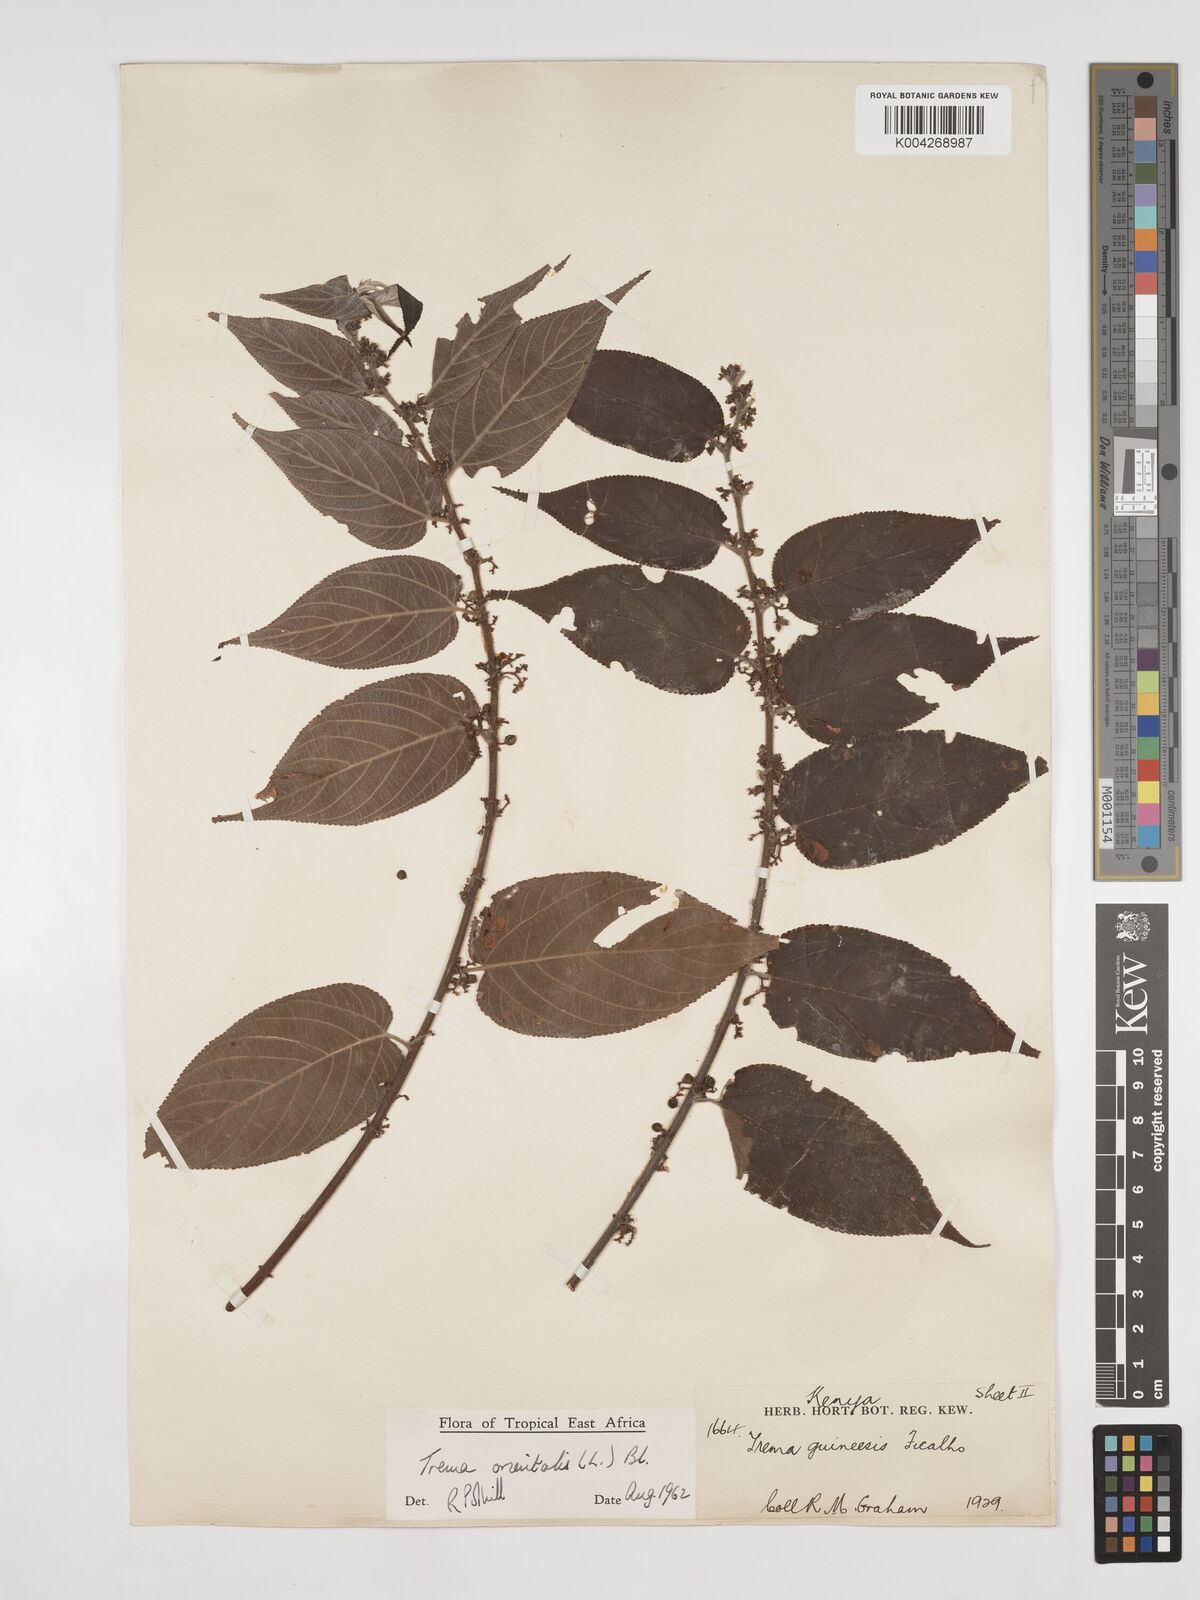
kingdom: Plantae
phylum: Tracheophyta
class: Magnoliopsida
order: Rosales
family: Cannabaceae
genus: Trema
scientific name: Trema orientale
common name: Indian charcoal tree
